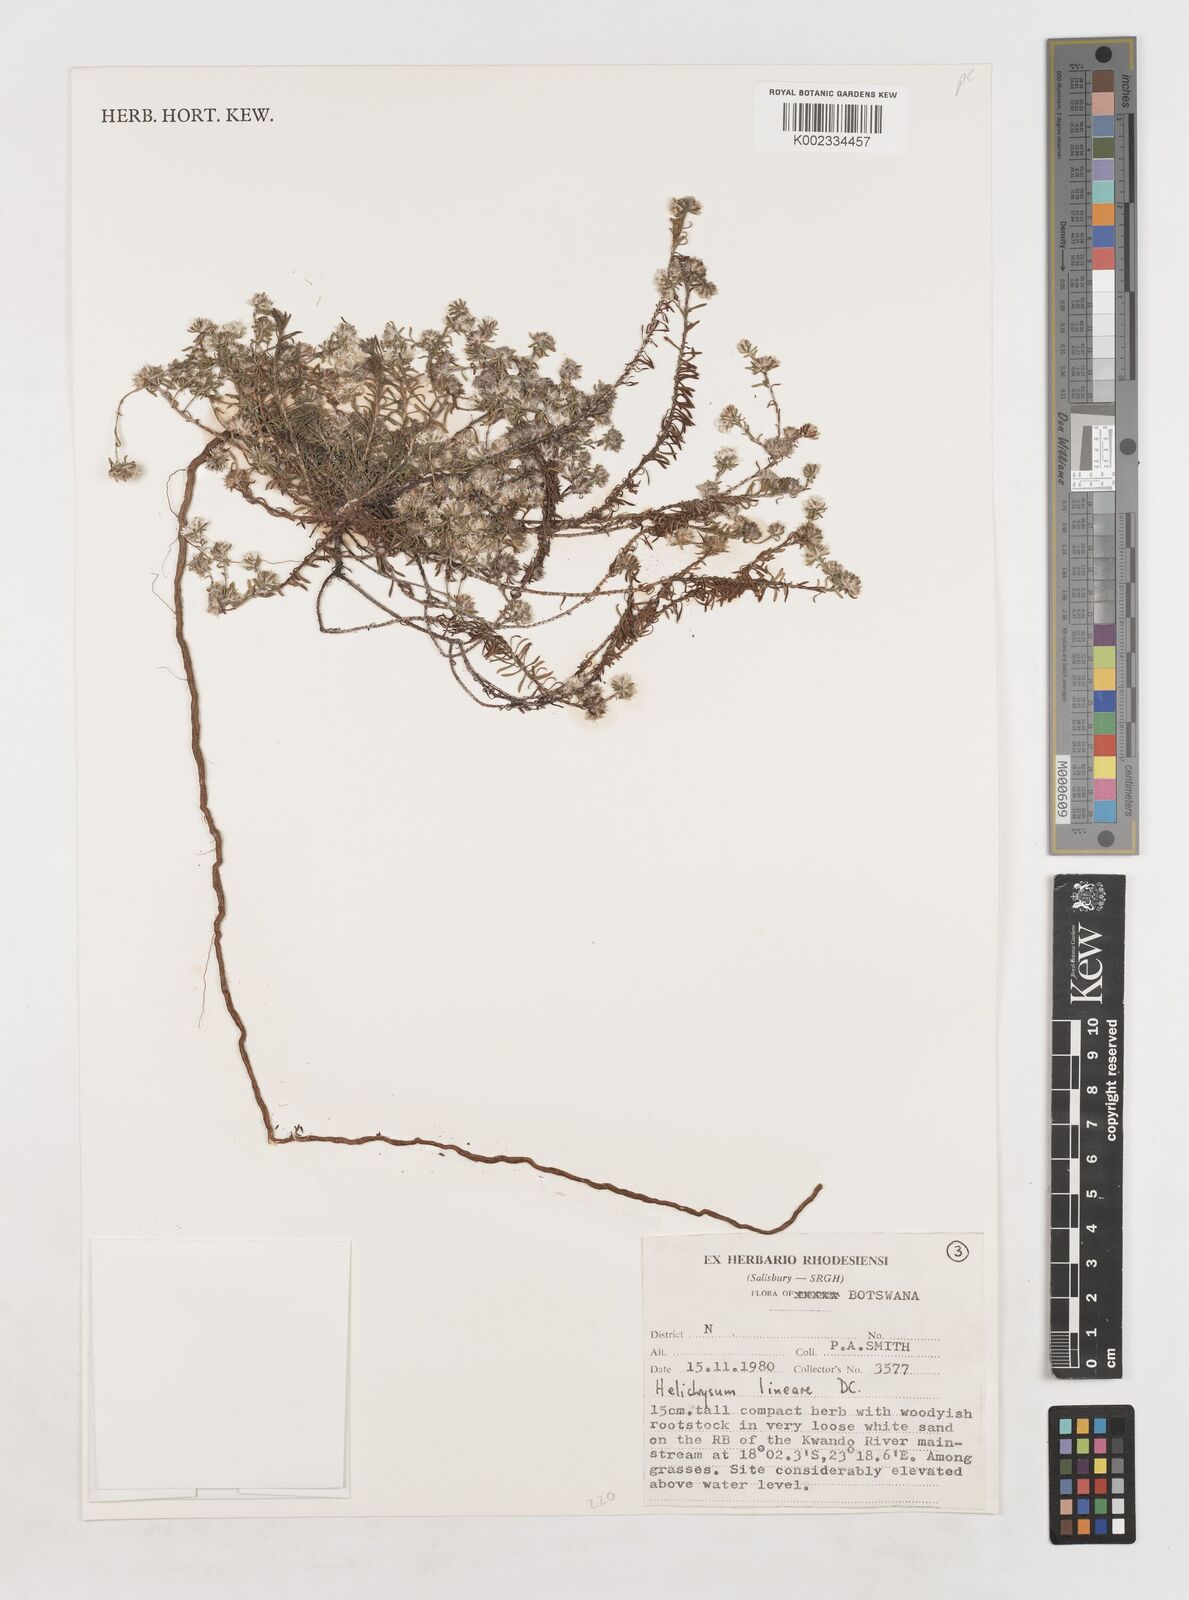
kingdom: Plantae
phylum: Tracheophyta
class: Magnoliopsida
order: Asterales
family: Asteraceae
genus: Helichrysum
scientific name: Helichrysum lineare
